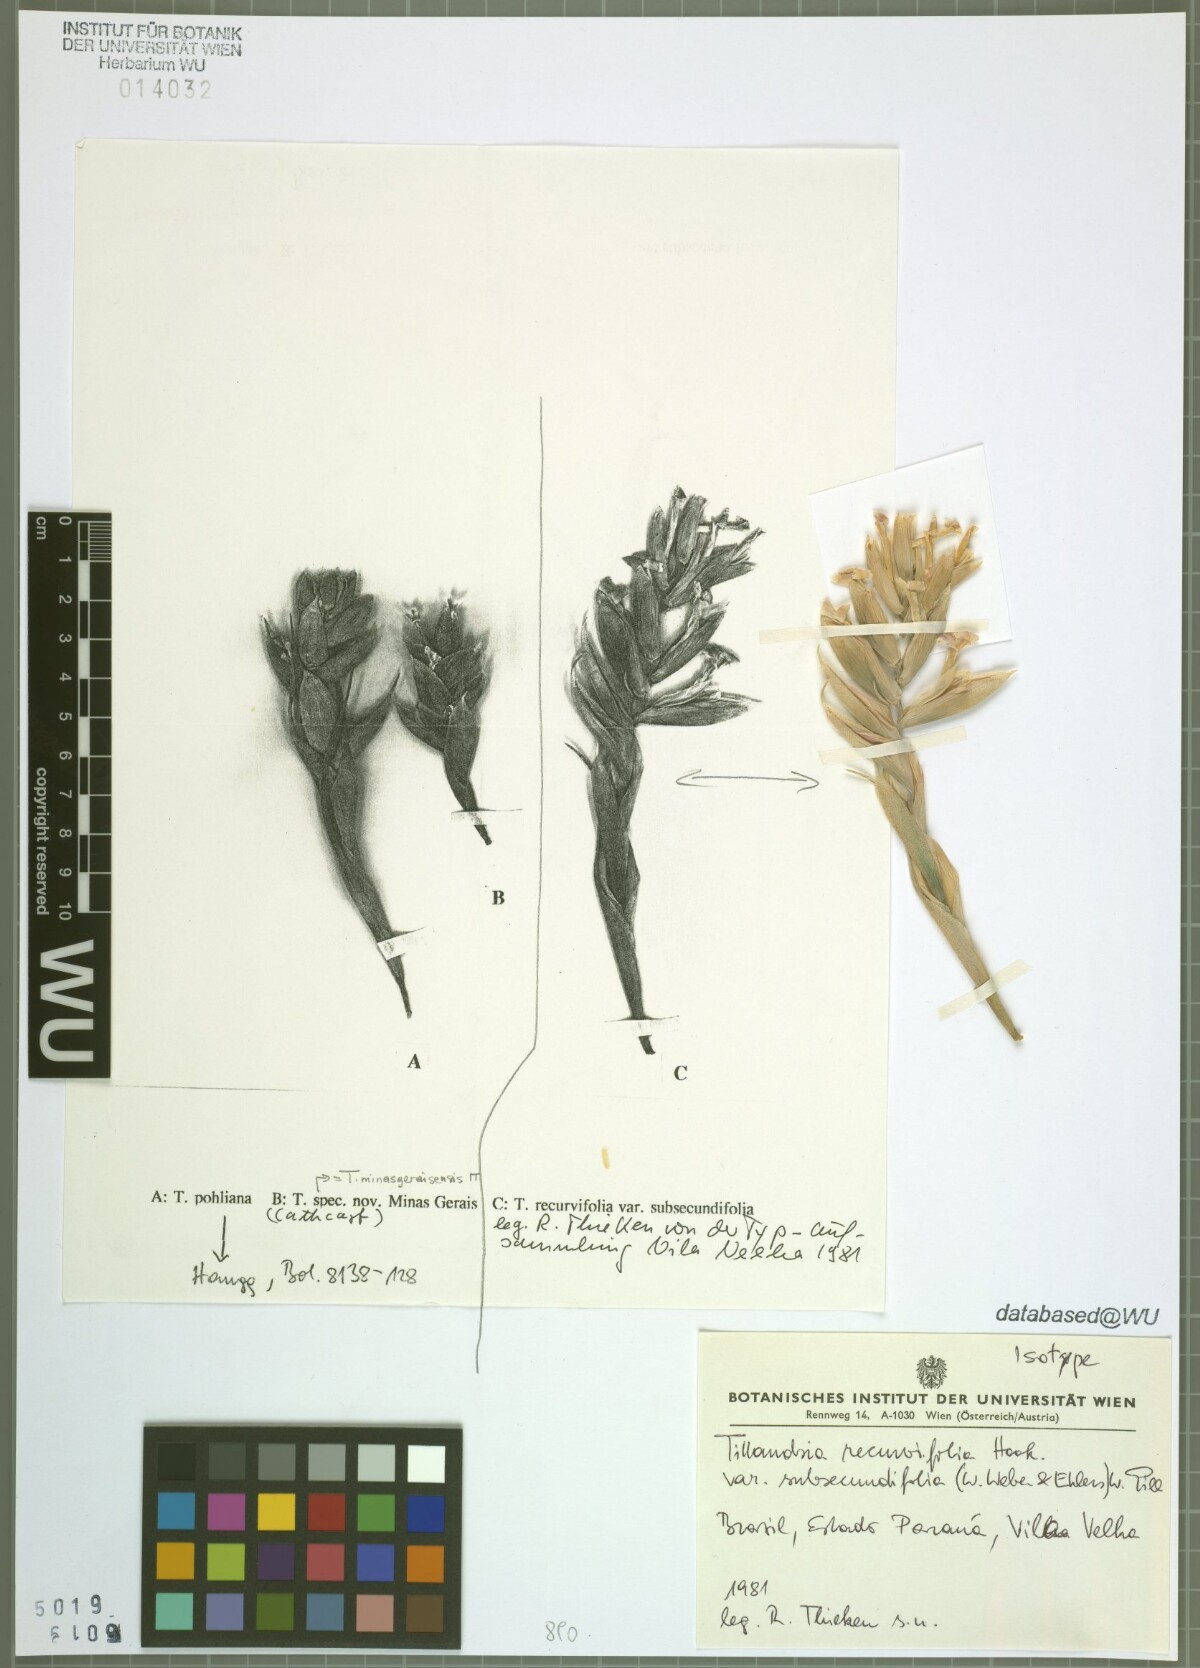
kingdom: Plantae
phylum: Tracheophyta
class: Liliopsida
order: Poales
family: Bromeliaceae
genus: Tillandsia
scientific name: Tillandsia leonamiana
